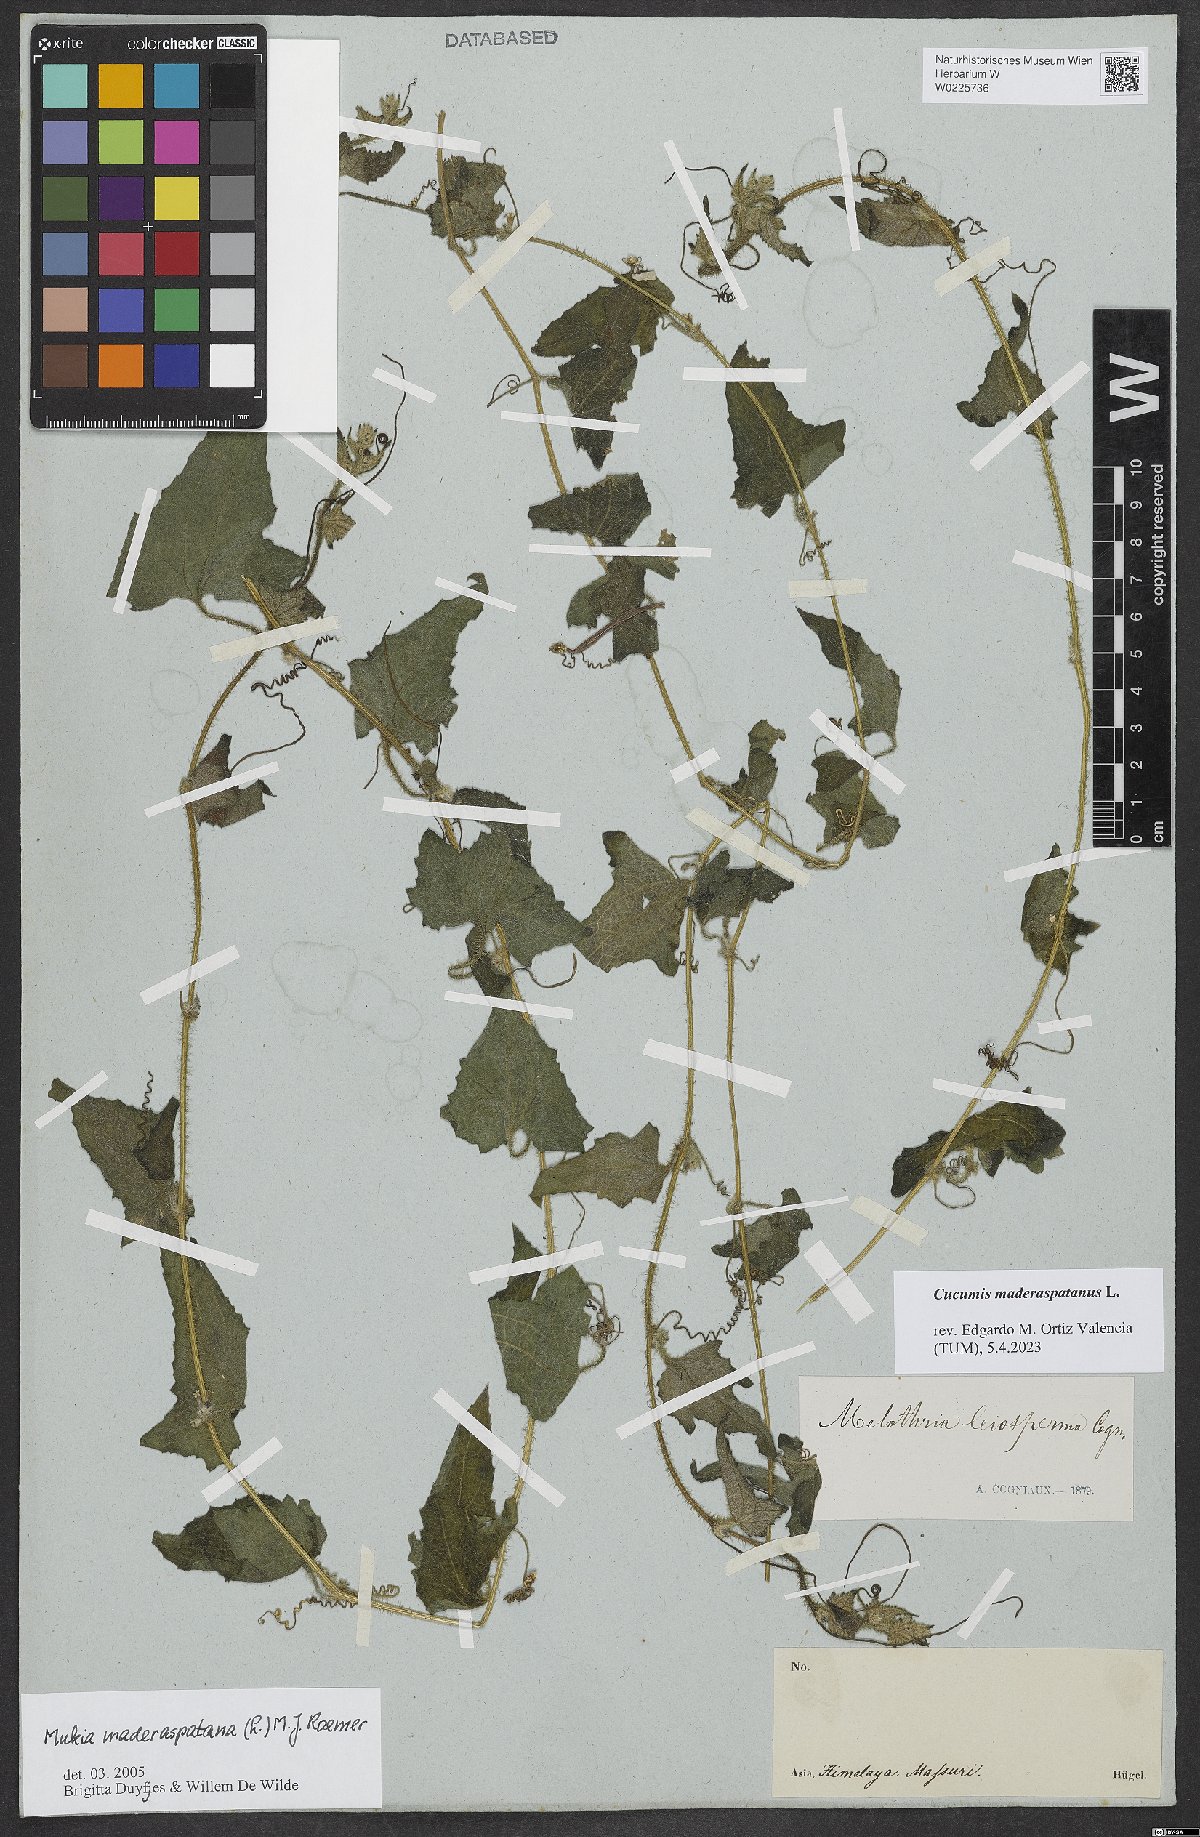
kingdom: Plantae
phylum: Tracheophyta
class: Magnoliopsida
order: Cucurbitales
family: Cucurbitaceae
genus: Cucumis
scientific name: Cucumis maderaspatanus
